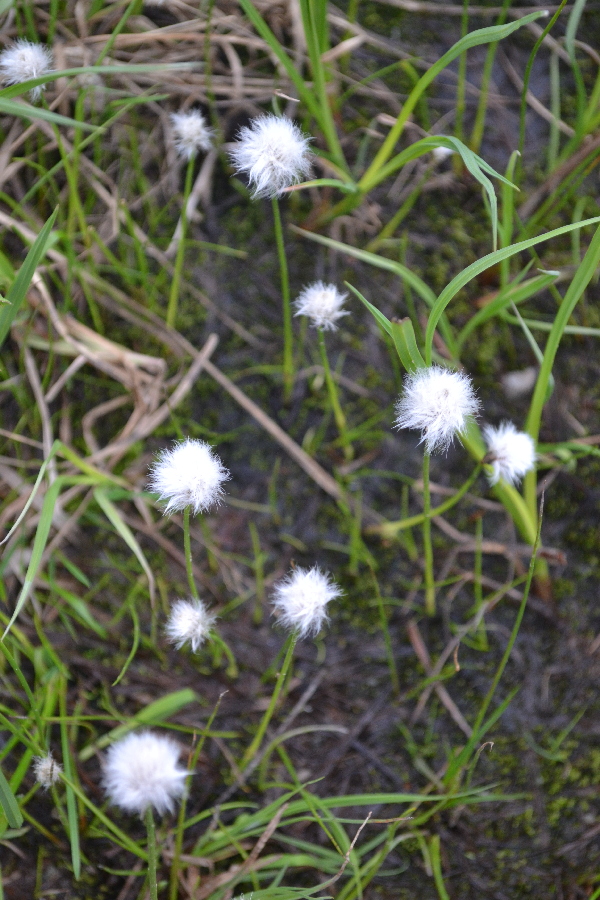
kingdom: Plantae
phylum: Tracheophyta
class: Liliopsida
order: Poales
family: Cyperaceae
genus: Eriophorum
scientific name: Eriophorum scheuchzeri
